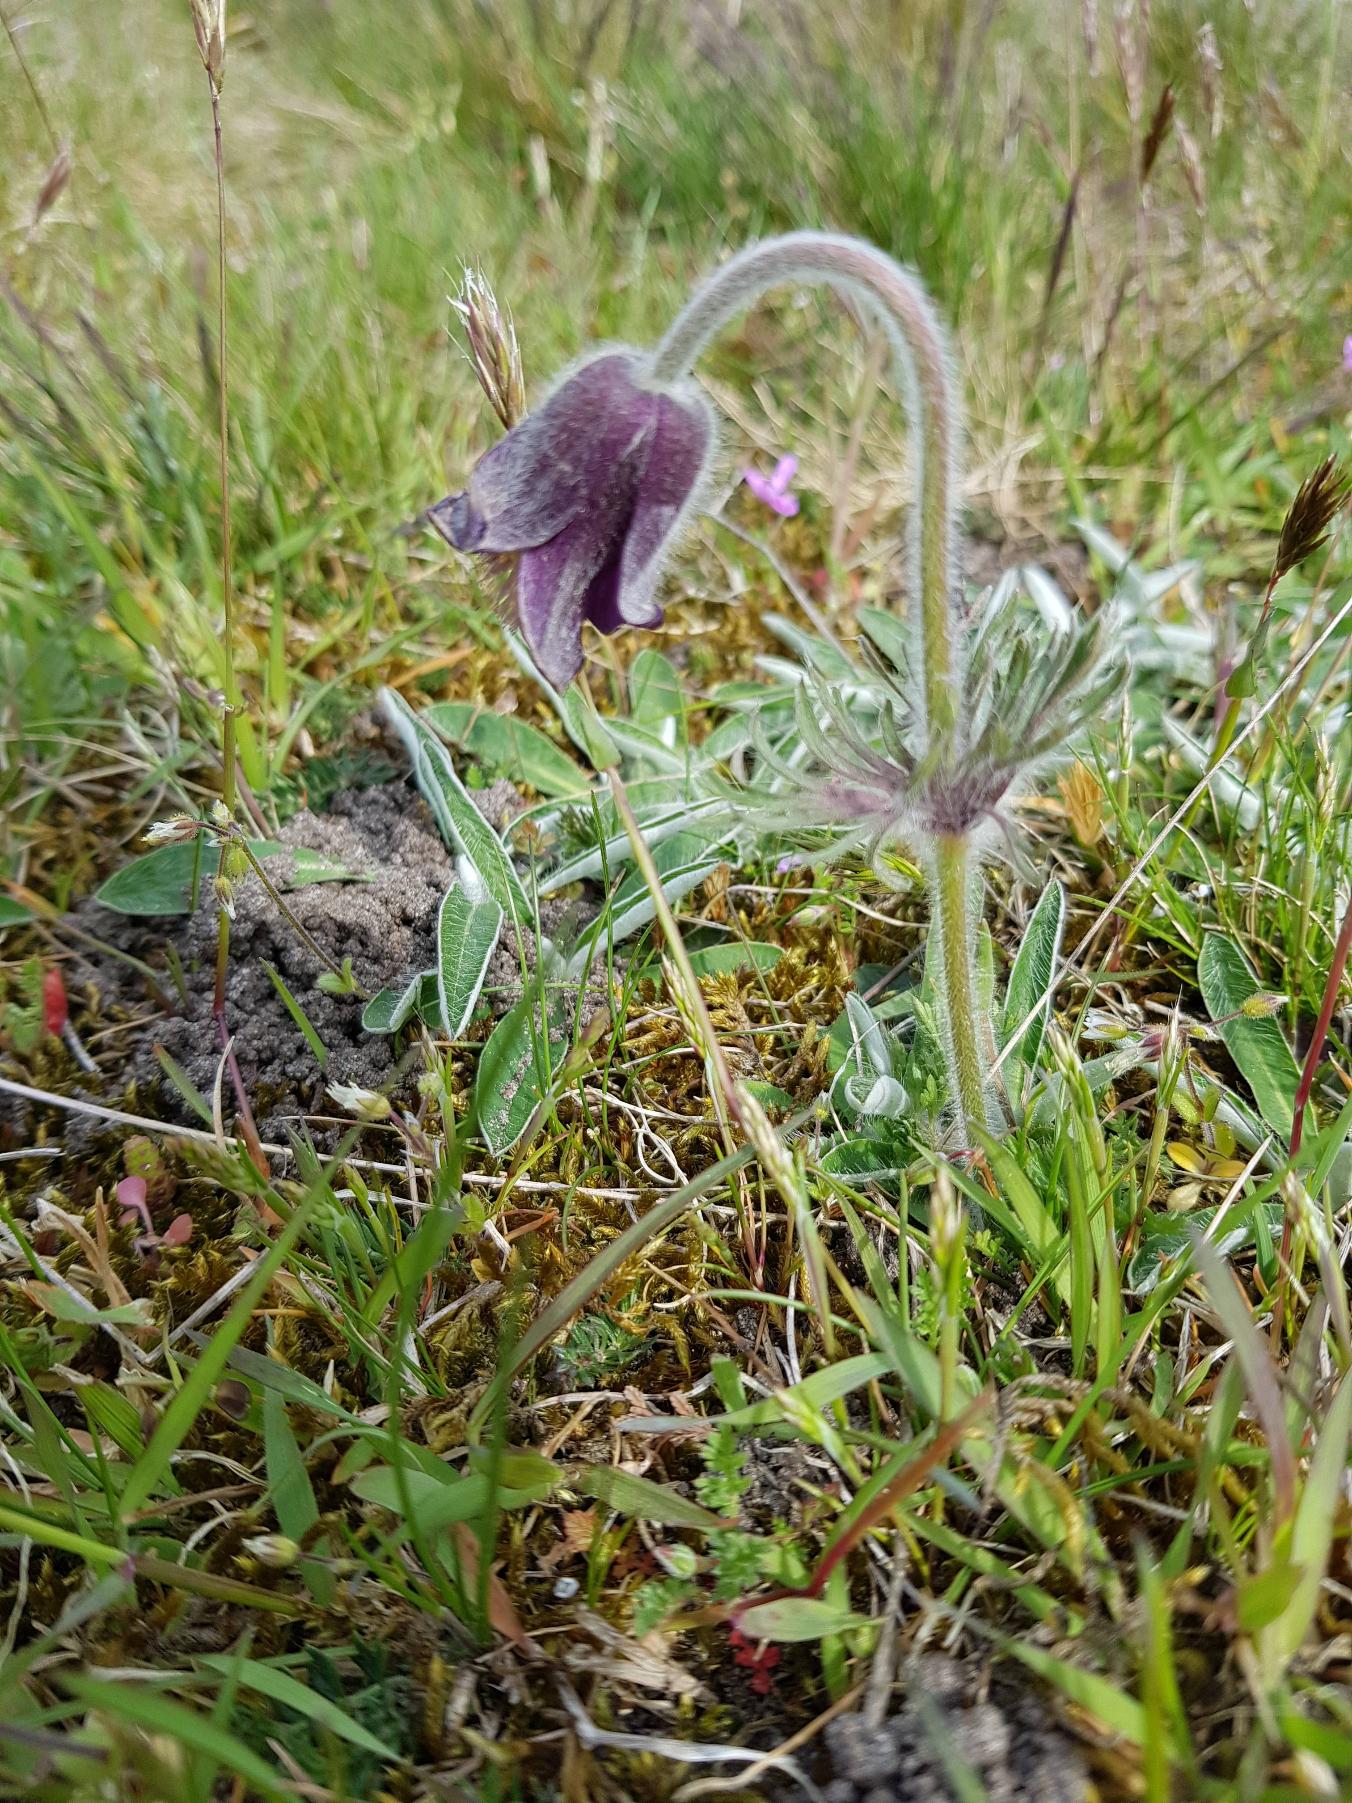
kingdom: Plantae
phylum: Tracheophyta
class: Magnoliopsida
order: Ranunculales
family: Ranunculaceae
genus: Pulsatilla
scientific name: Pulsatilla pratensis
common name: Nikkende kobjælde
